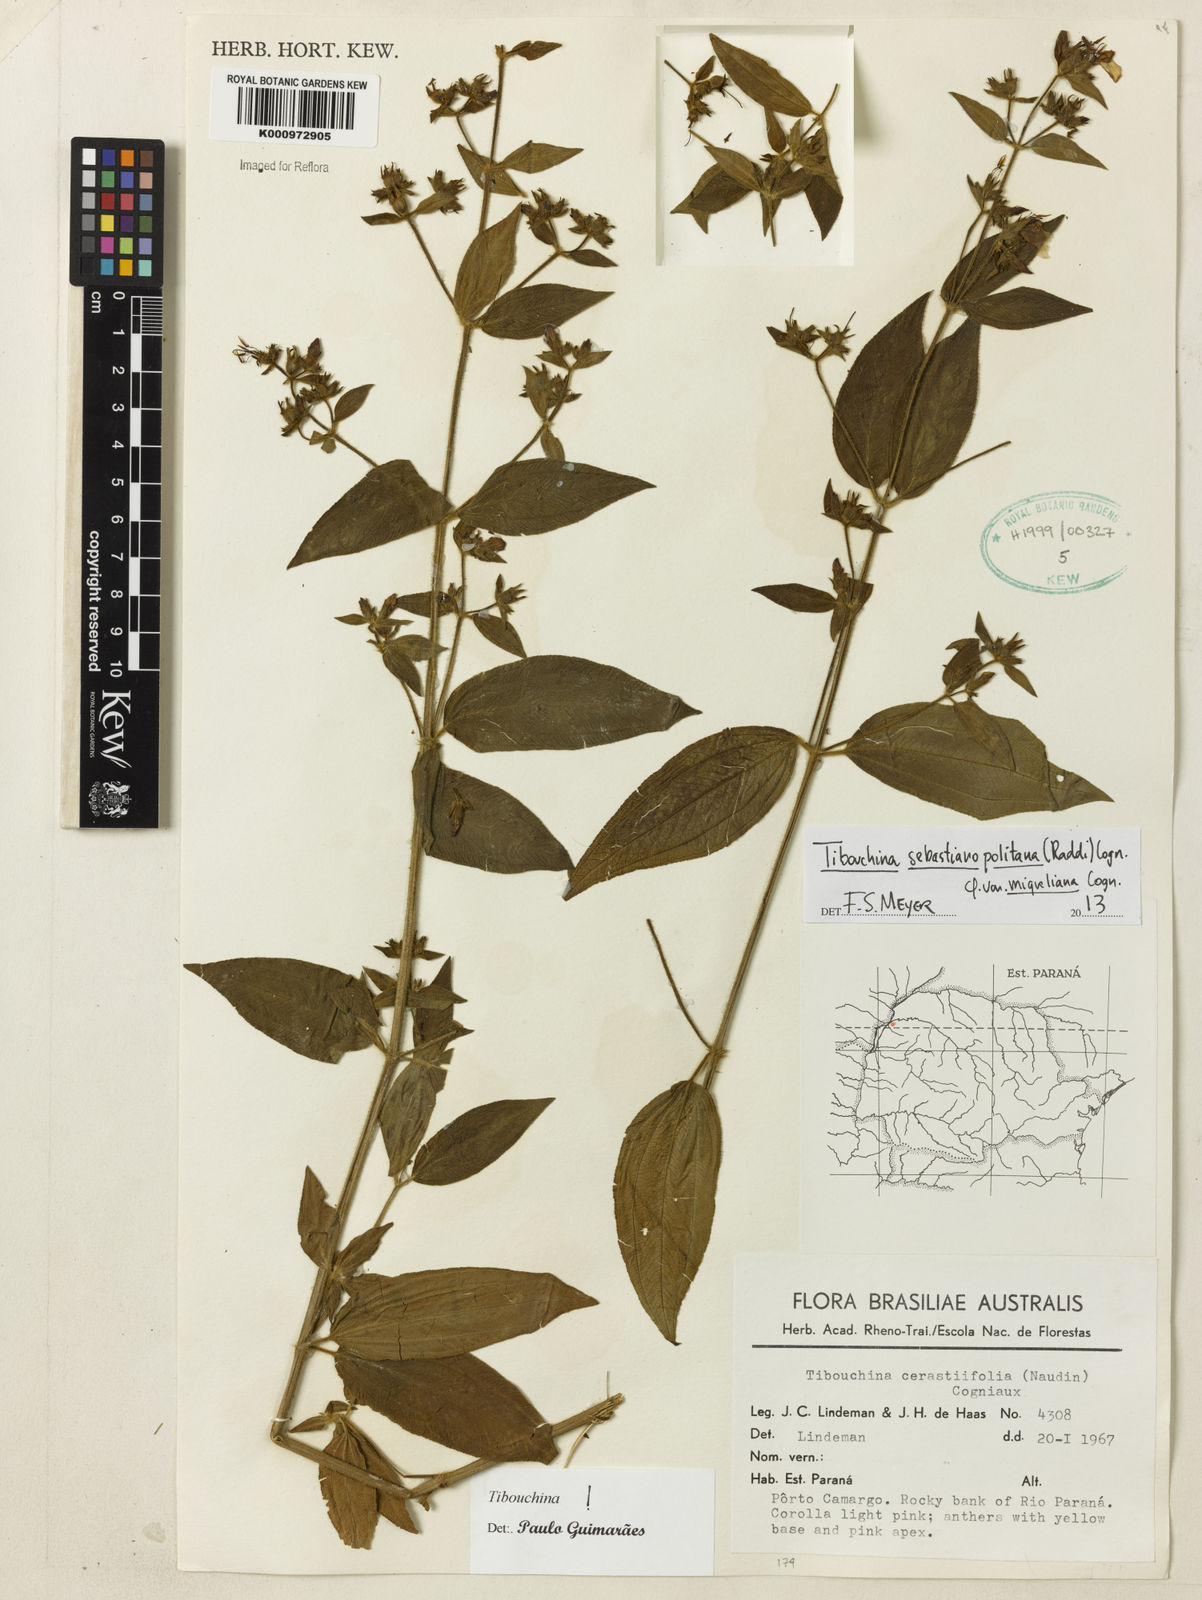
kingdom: Plantae
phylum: Tracheophyta
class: Magnoliopsida
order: Myrtales
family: Melastomataceae
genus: Chaetogastra
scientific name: Chaetogastra sebastianopolitana
